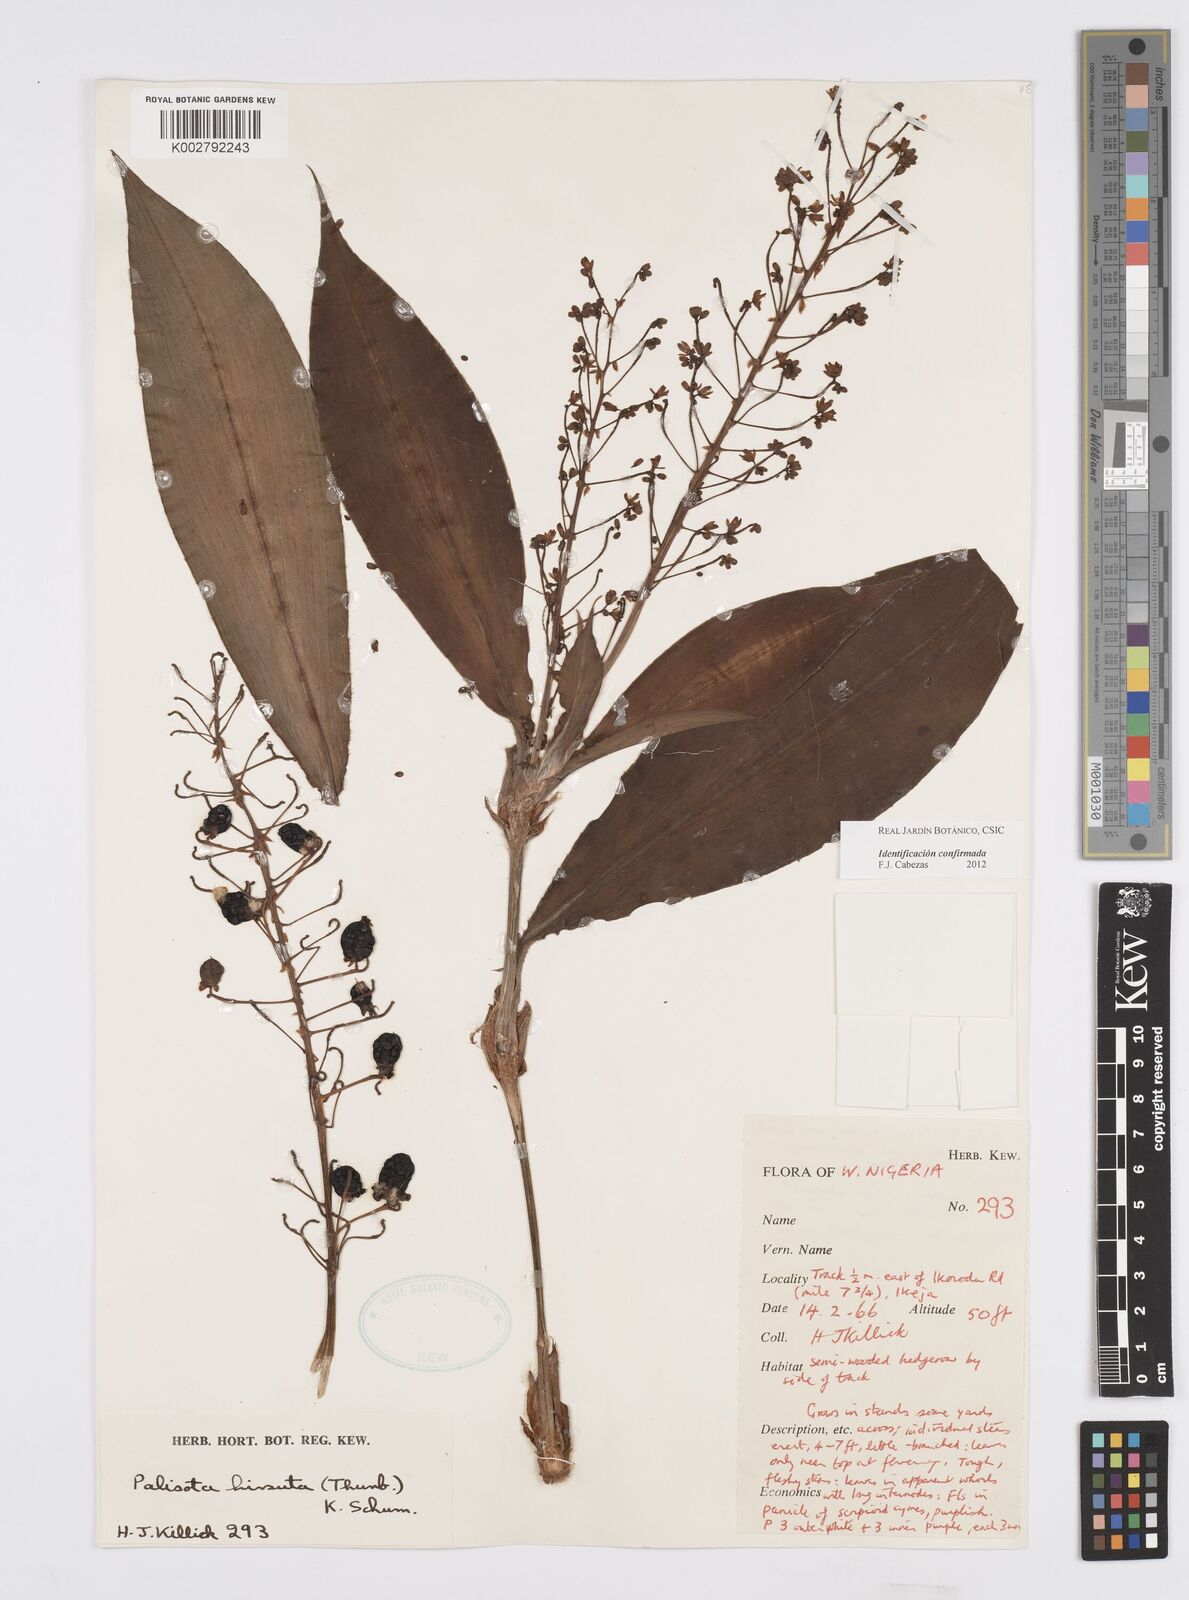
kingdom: Plantae
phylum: Tracheophyta
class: Liliopsida
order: Commelinales
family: Commelinaceae
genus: Palisota
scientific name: Palisota hirsuta
